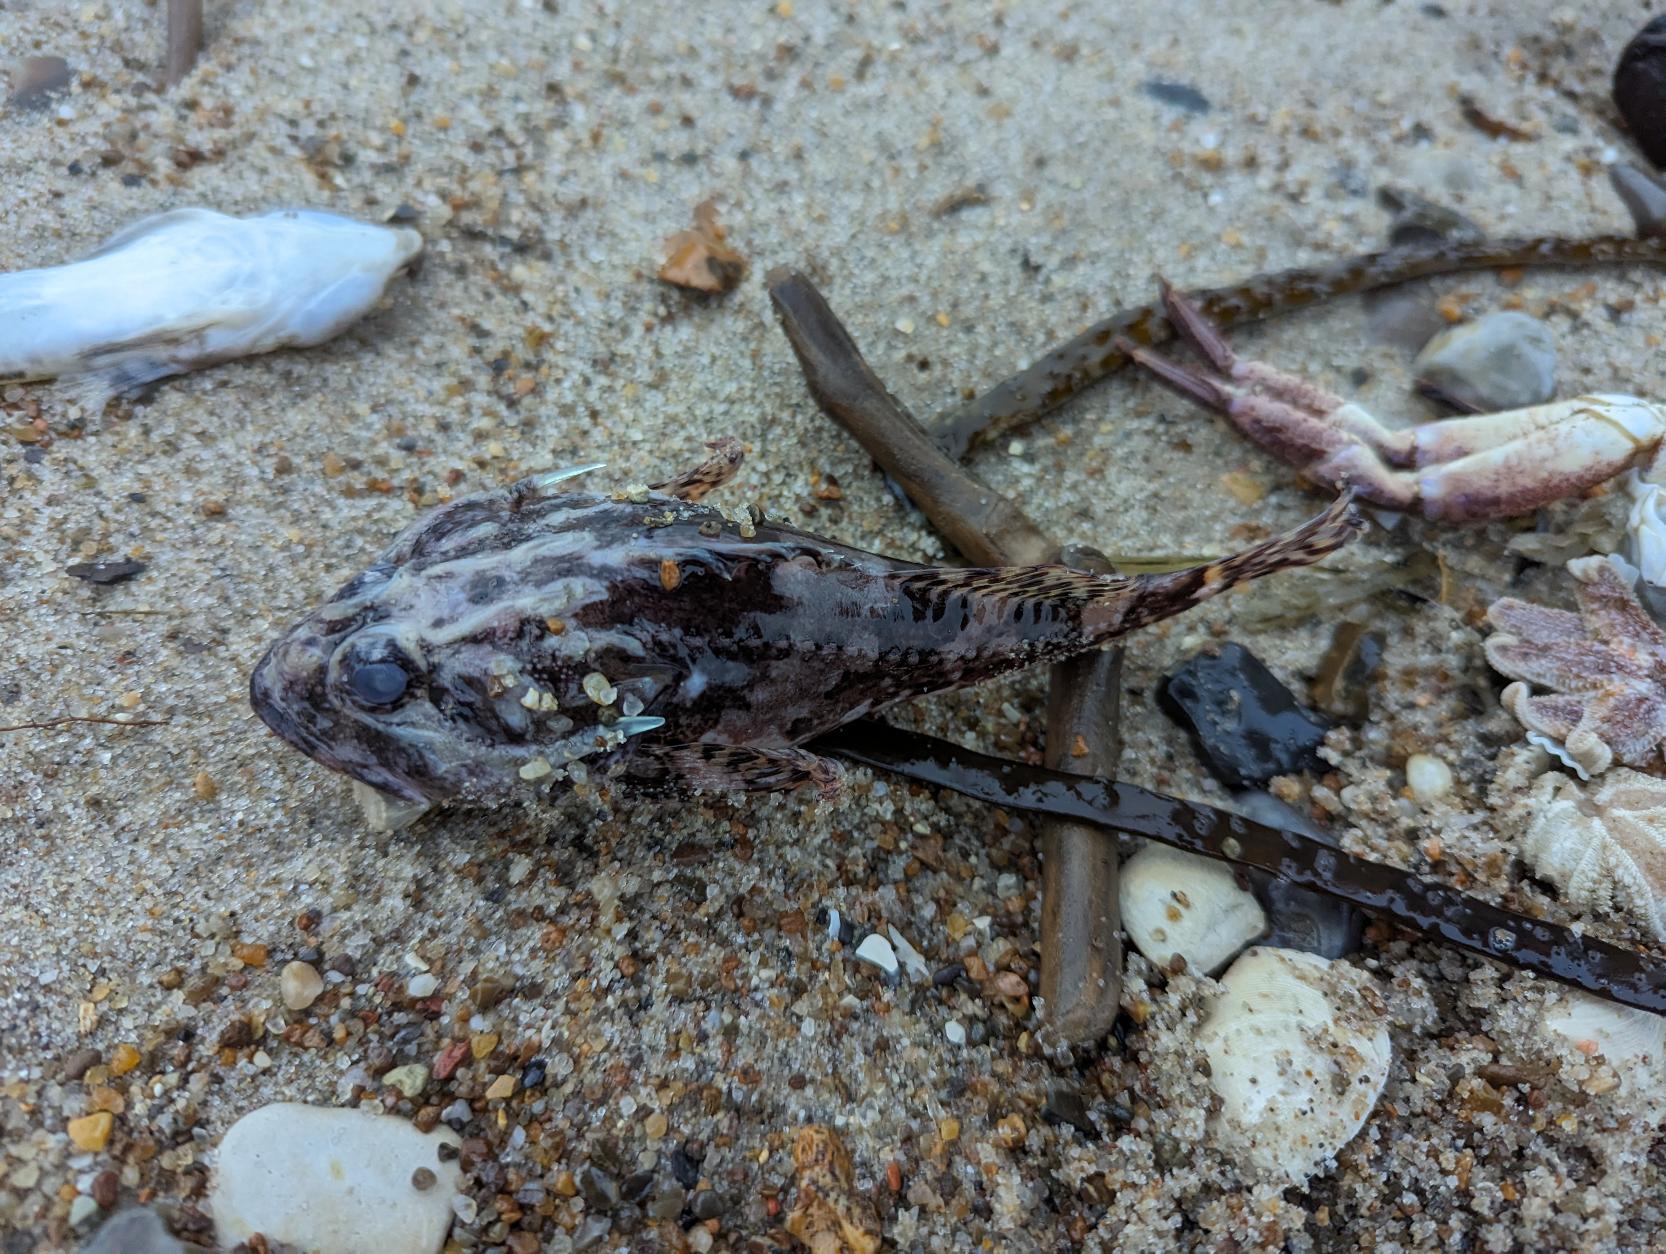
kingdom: Animalia
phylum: Chordata
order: Scorpaeniformes
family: Cottidae
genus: Taurulus
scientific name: Taurulus bubalis
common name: Langtornet ulk
